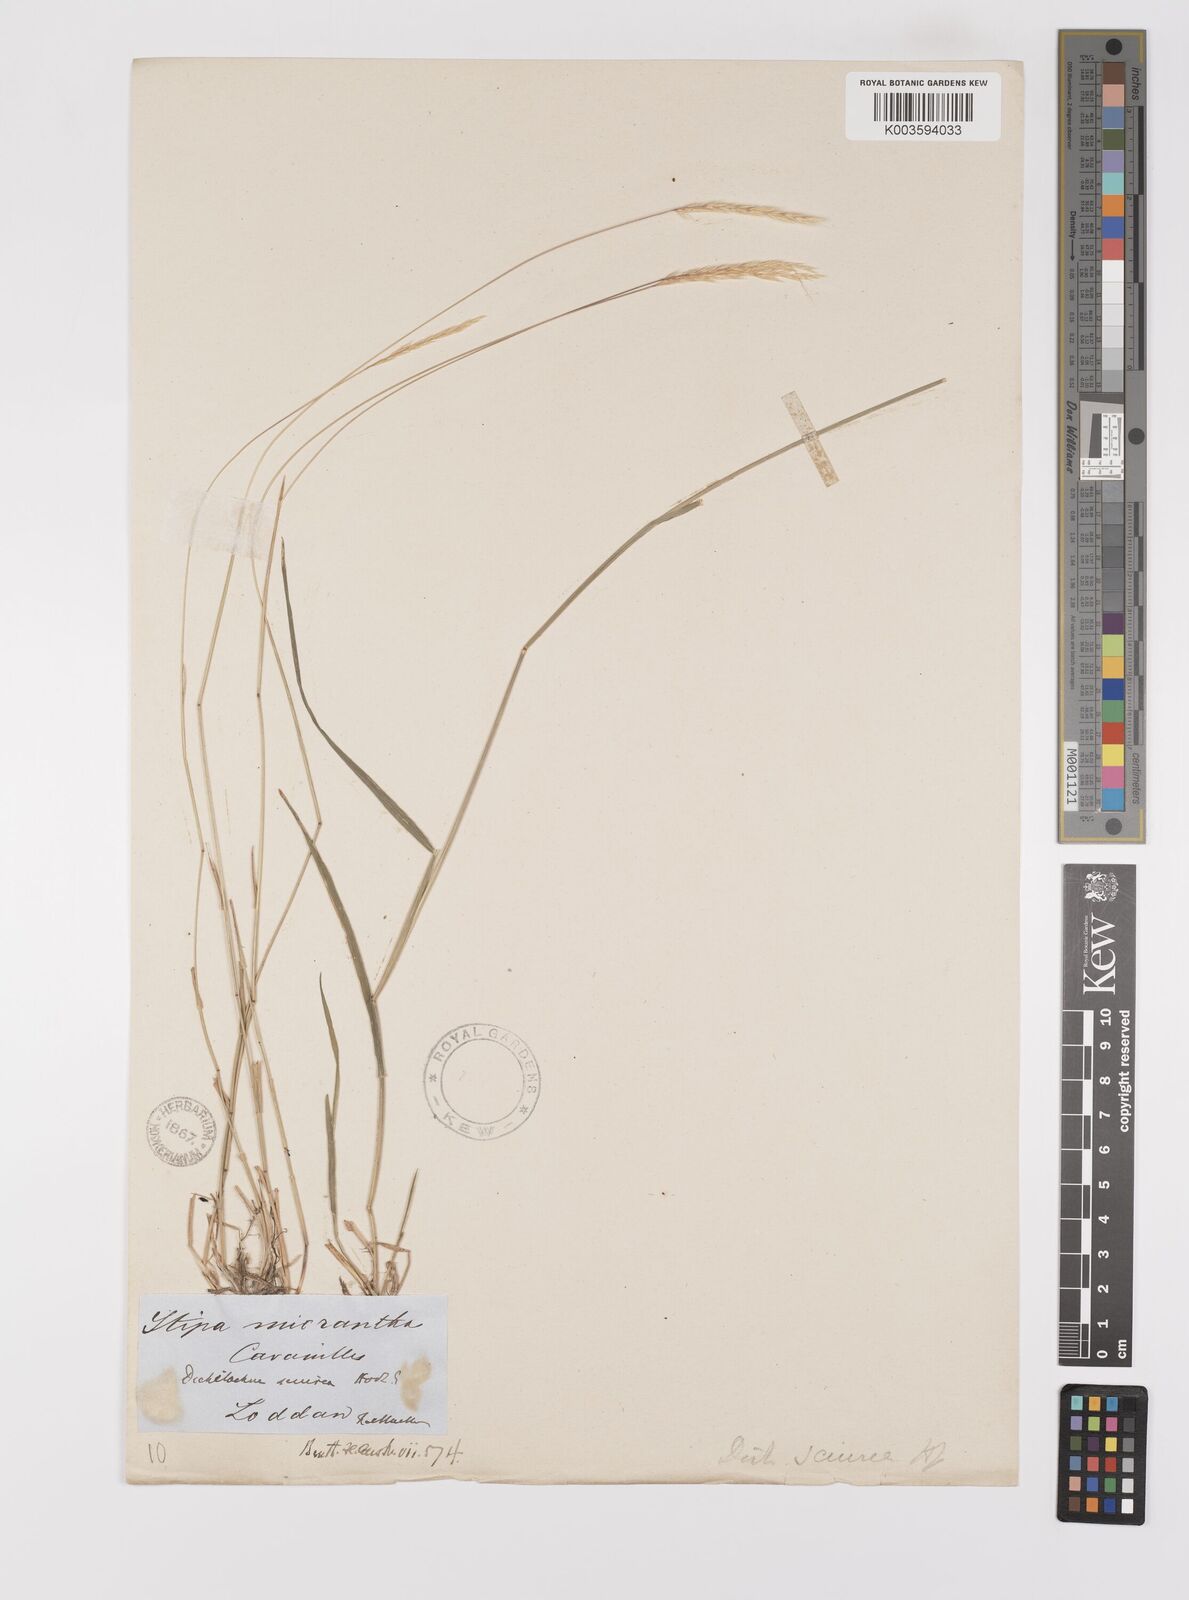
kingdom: Plantae
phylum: Tracheophyta
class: Liliopsida
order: Poales
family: Poaceae
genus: Dichelachne
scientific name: Dichelachne micrantha
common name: Plumegrass
